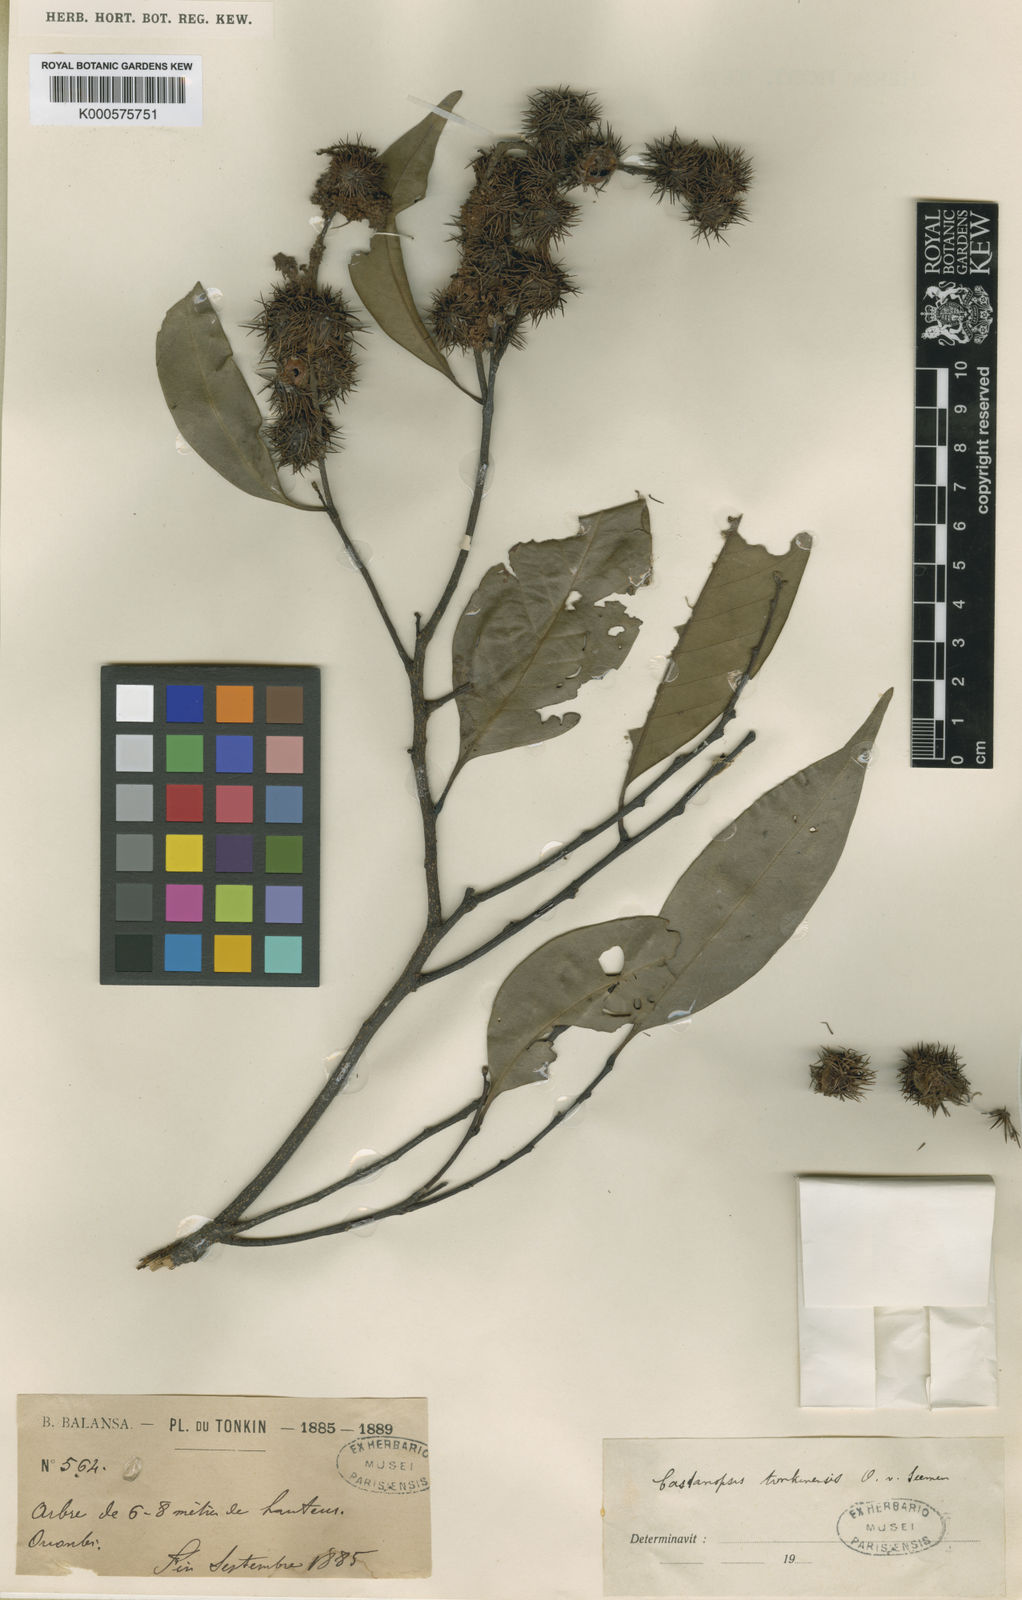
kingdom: Plantae
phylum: Tracheophyta
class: Magnoliopsida
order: Fagales
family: Fagaceae
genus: Castanopsis
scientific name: Castanopsis tonkinensis
